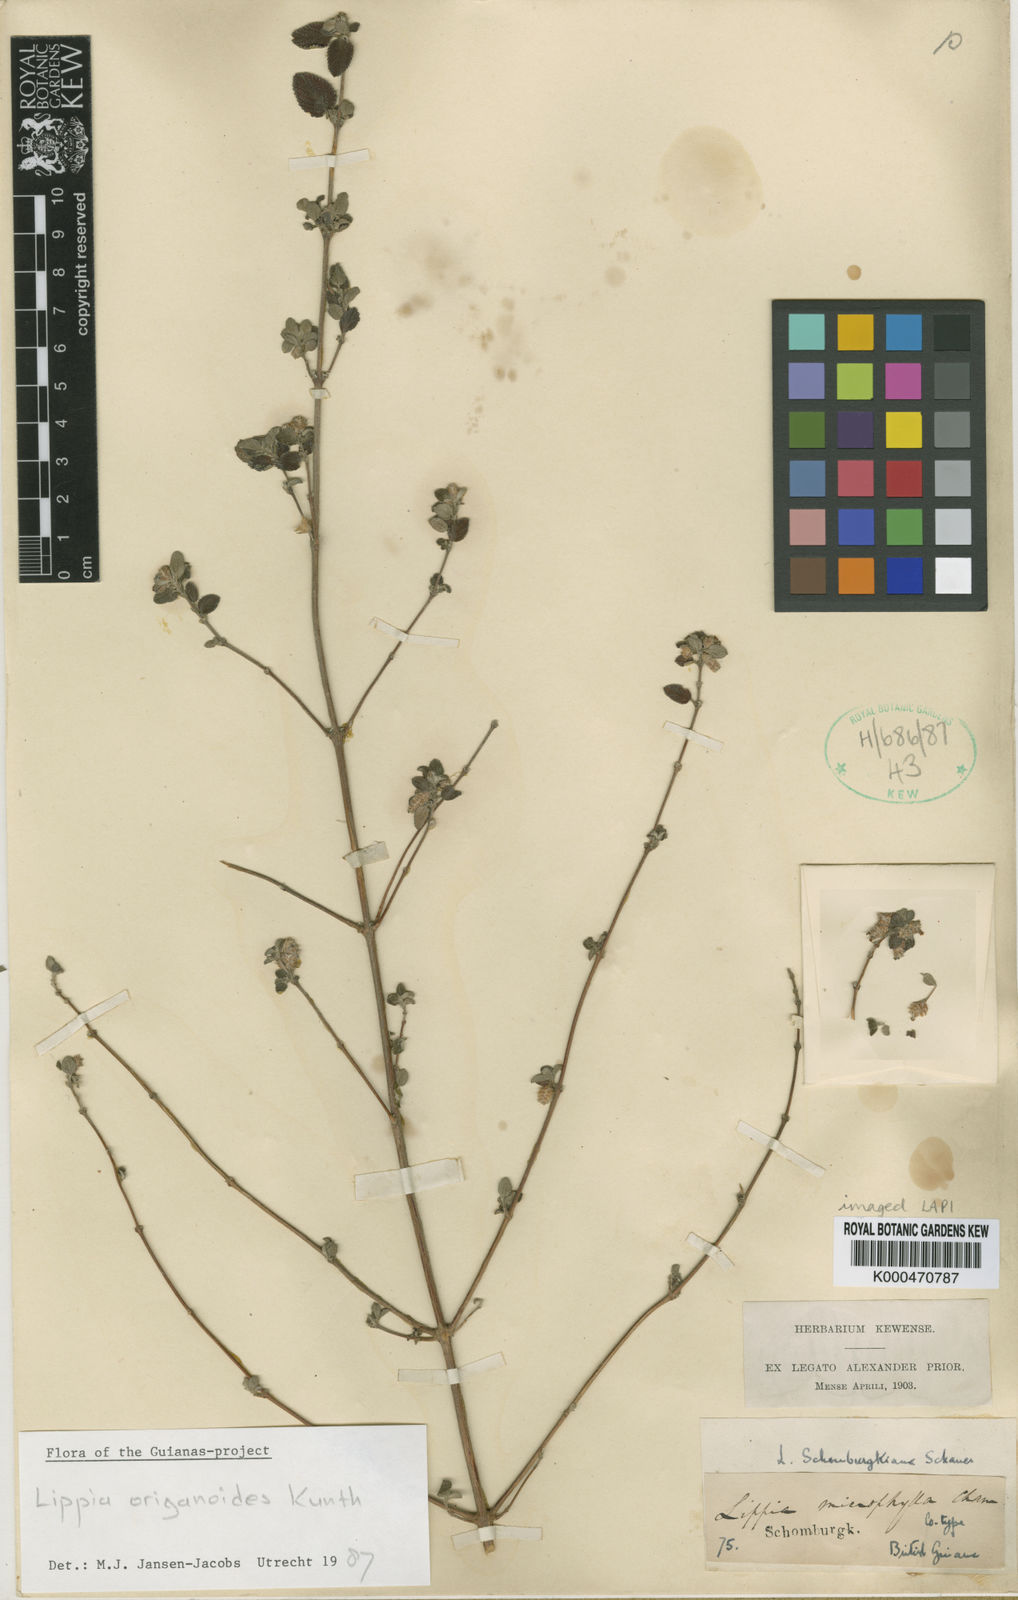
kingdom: Plantae
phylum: Tracheophyta
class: Magnoliopsida
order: Lamiales
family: Verbenaceae
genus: Lippia
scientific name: Lippia origanoides
